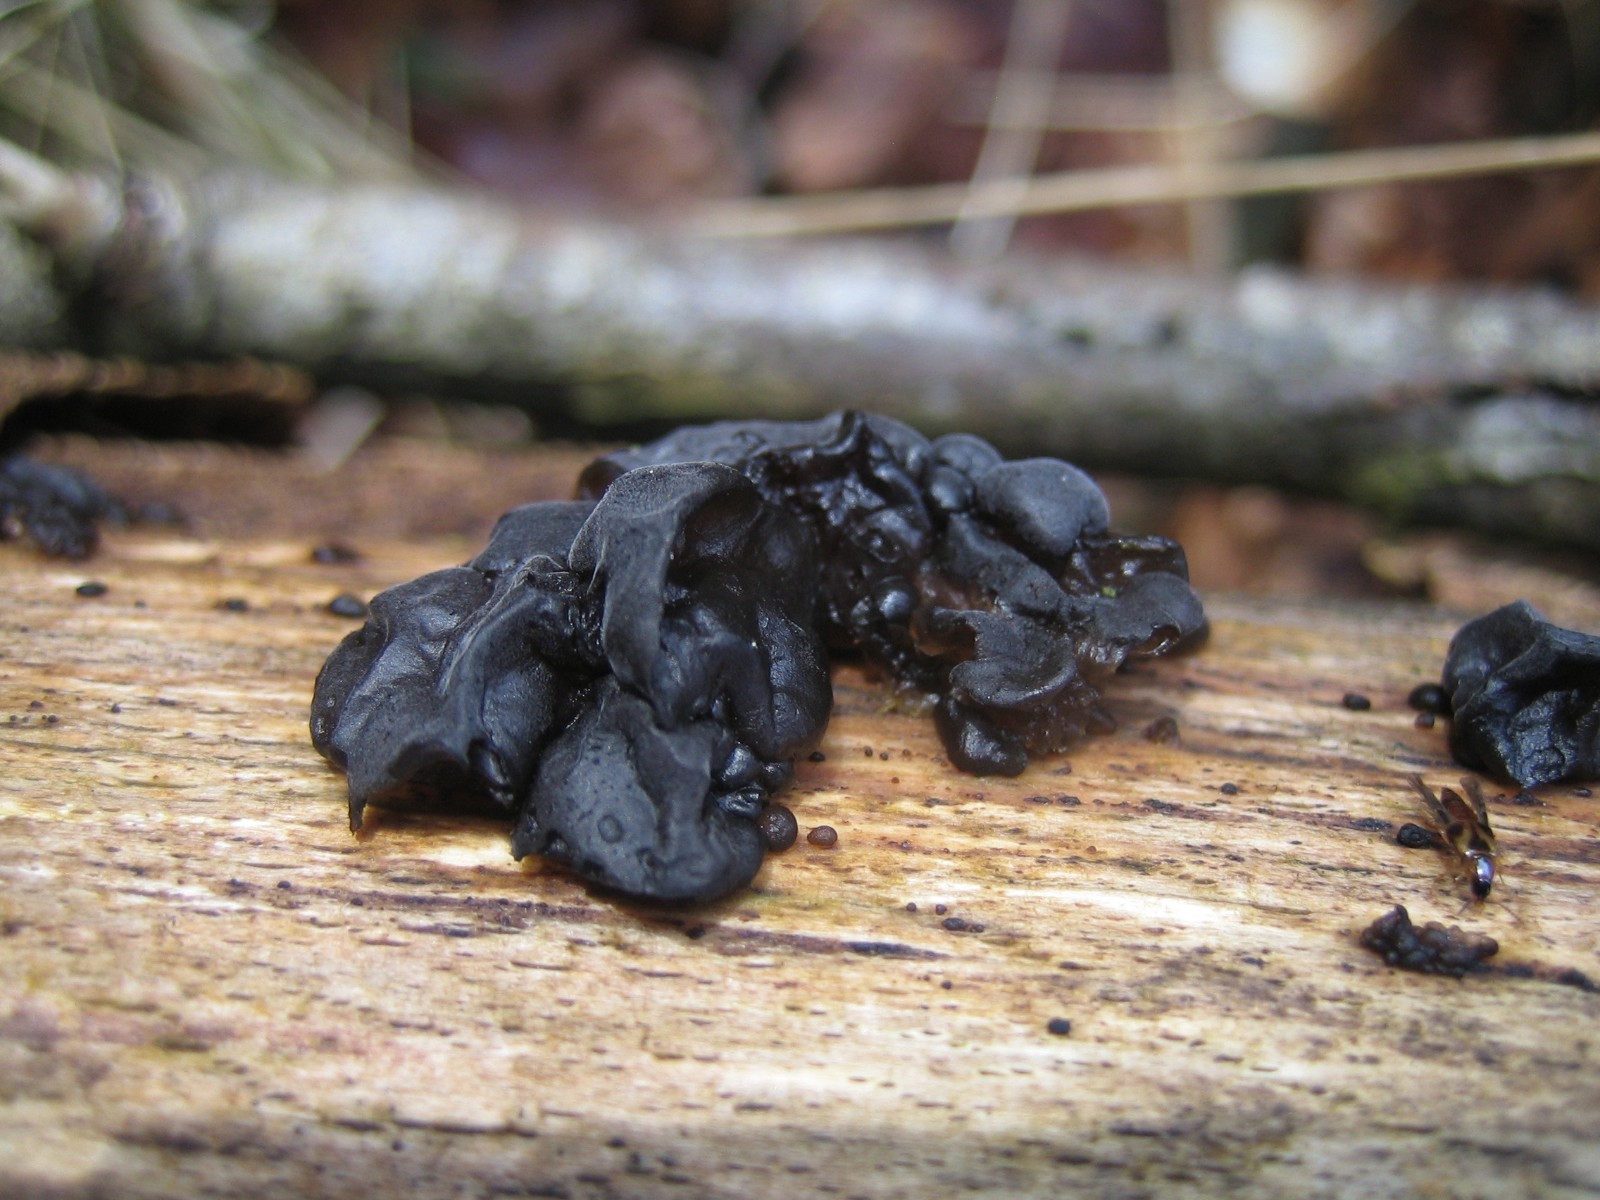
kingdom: Fungi
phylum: Basidiomycota
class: Agaricomycetes
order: Auriculariales
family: Auriculariaceae
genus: Exidia
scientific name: Exidia nigricans
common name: almindelig bævretop
